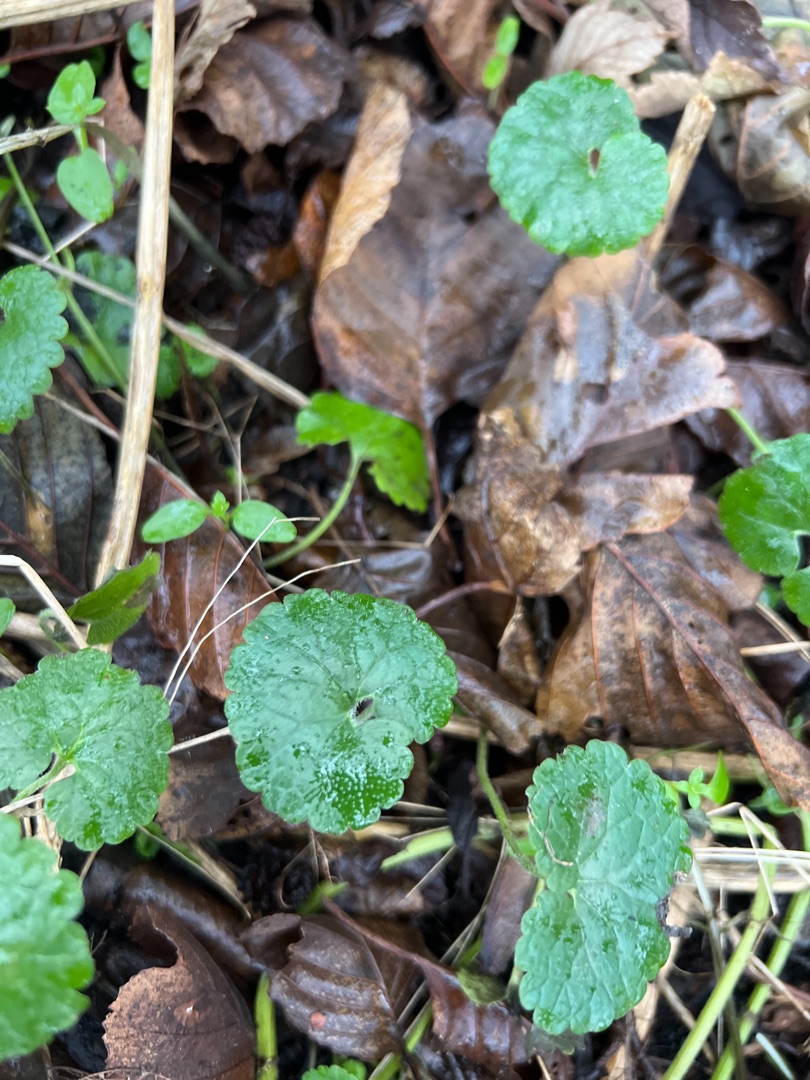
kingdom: Plantae
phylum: Tracheophyta
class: Magnoliopsida
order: Lamiales
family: Lamiaceae
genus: Glechoma
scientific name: Glechoma hederacea
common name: Korsknap
